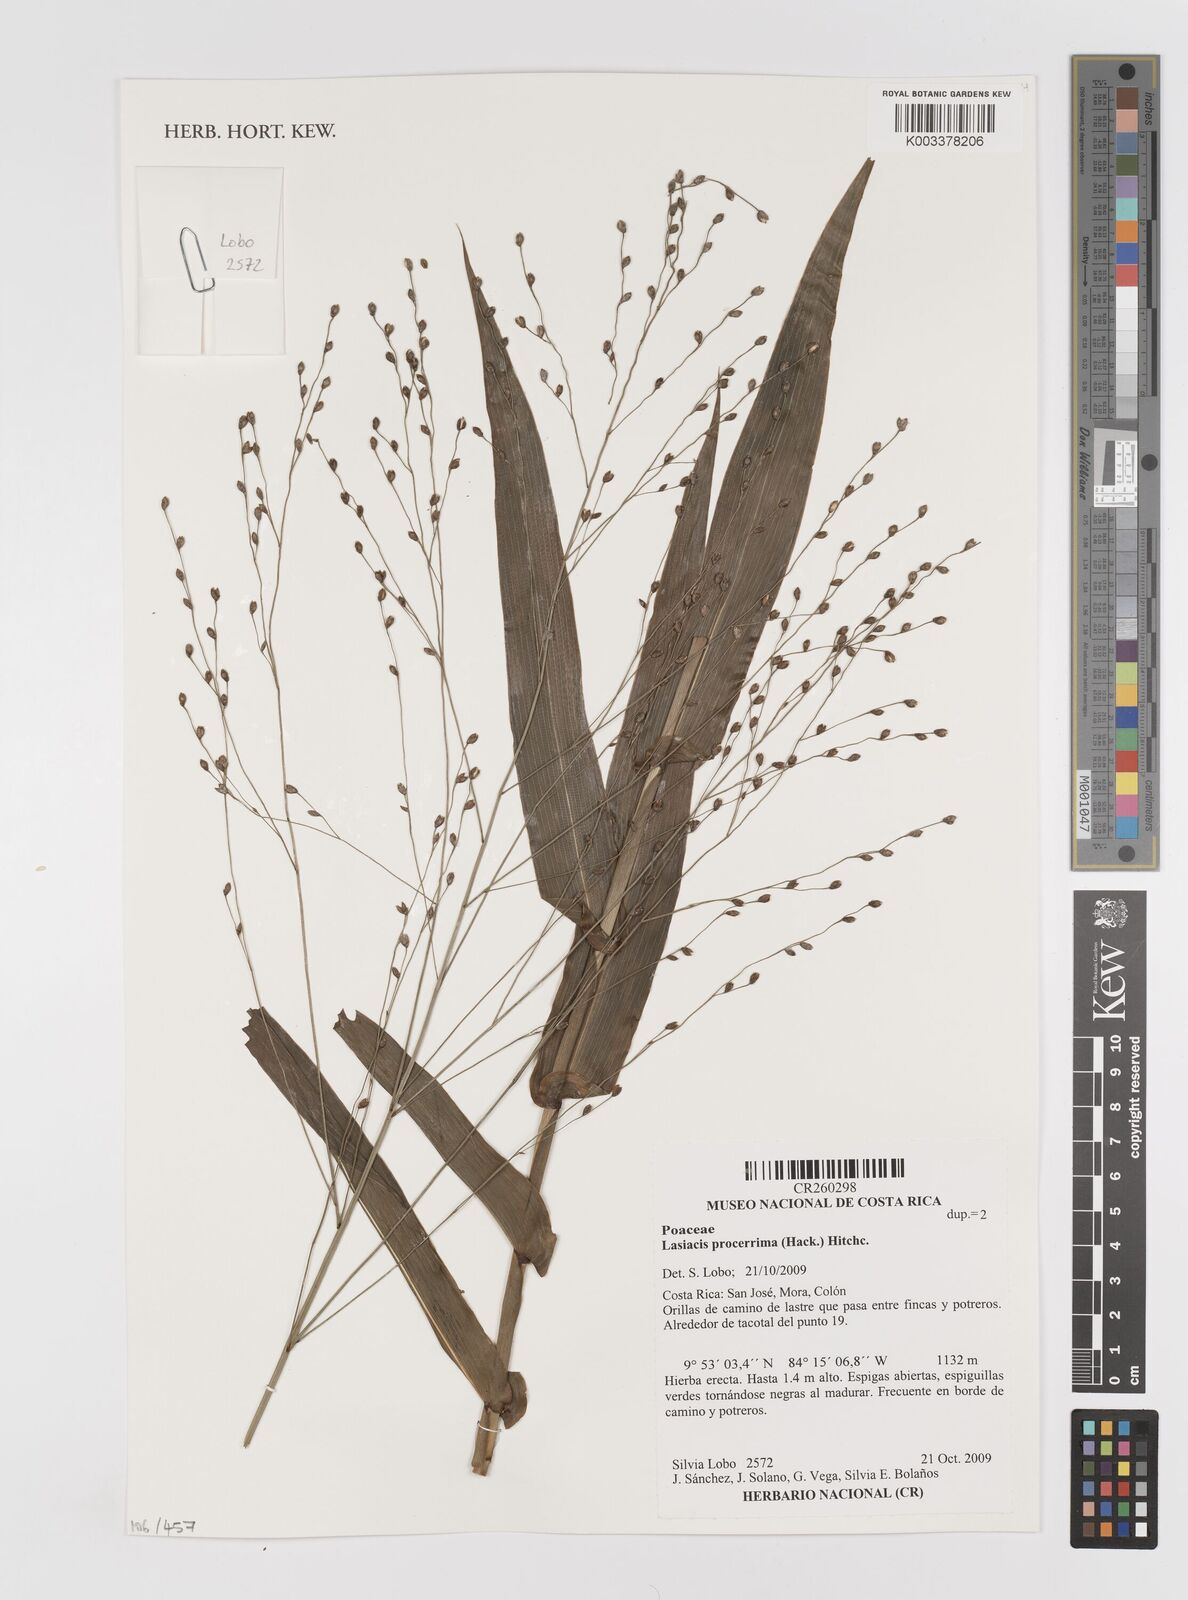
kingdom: Plantae
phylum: Tracheophyta
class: Liliopsida
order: Poales
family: Poaceae
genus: Lasiacis
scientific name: Lasiacis procerrima
